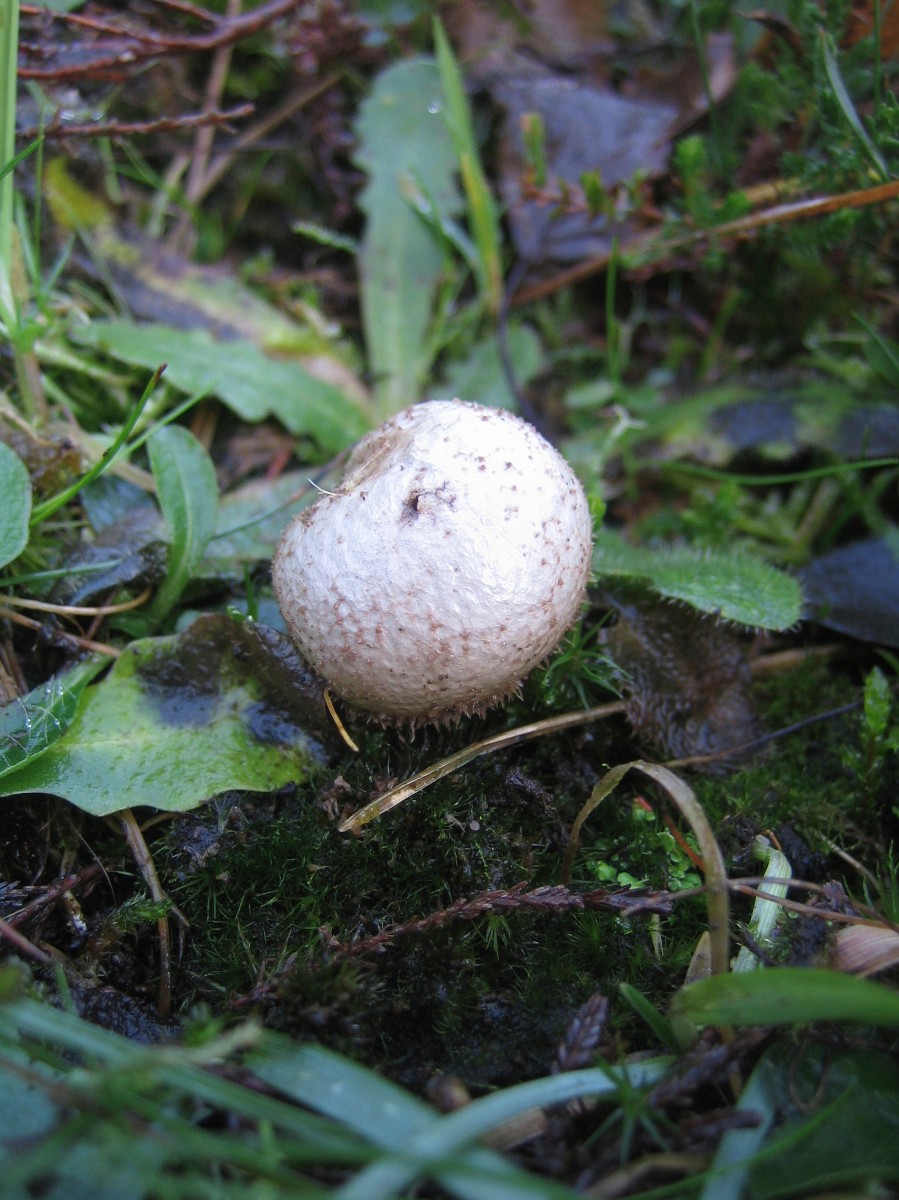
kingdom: Fungi
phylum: Basidiomycota
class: Agaricomycetes
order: Agaricales
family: Lycoperdaceae
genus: Lycoperdon
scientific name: Lycoperdon nigrescens
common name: sortagtig støvbold
